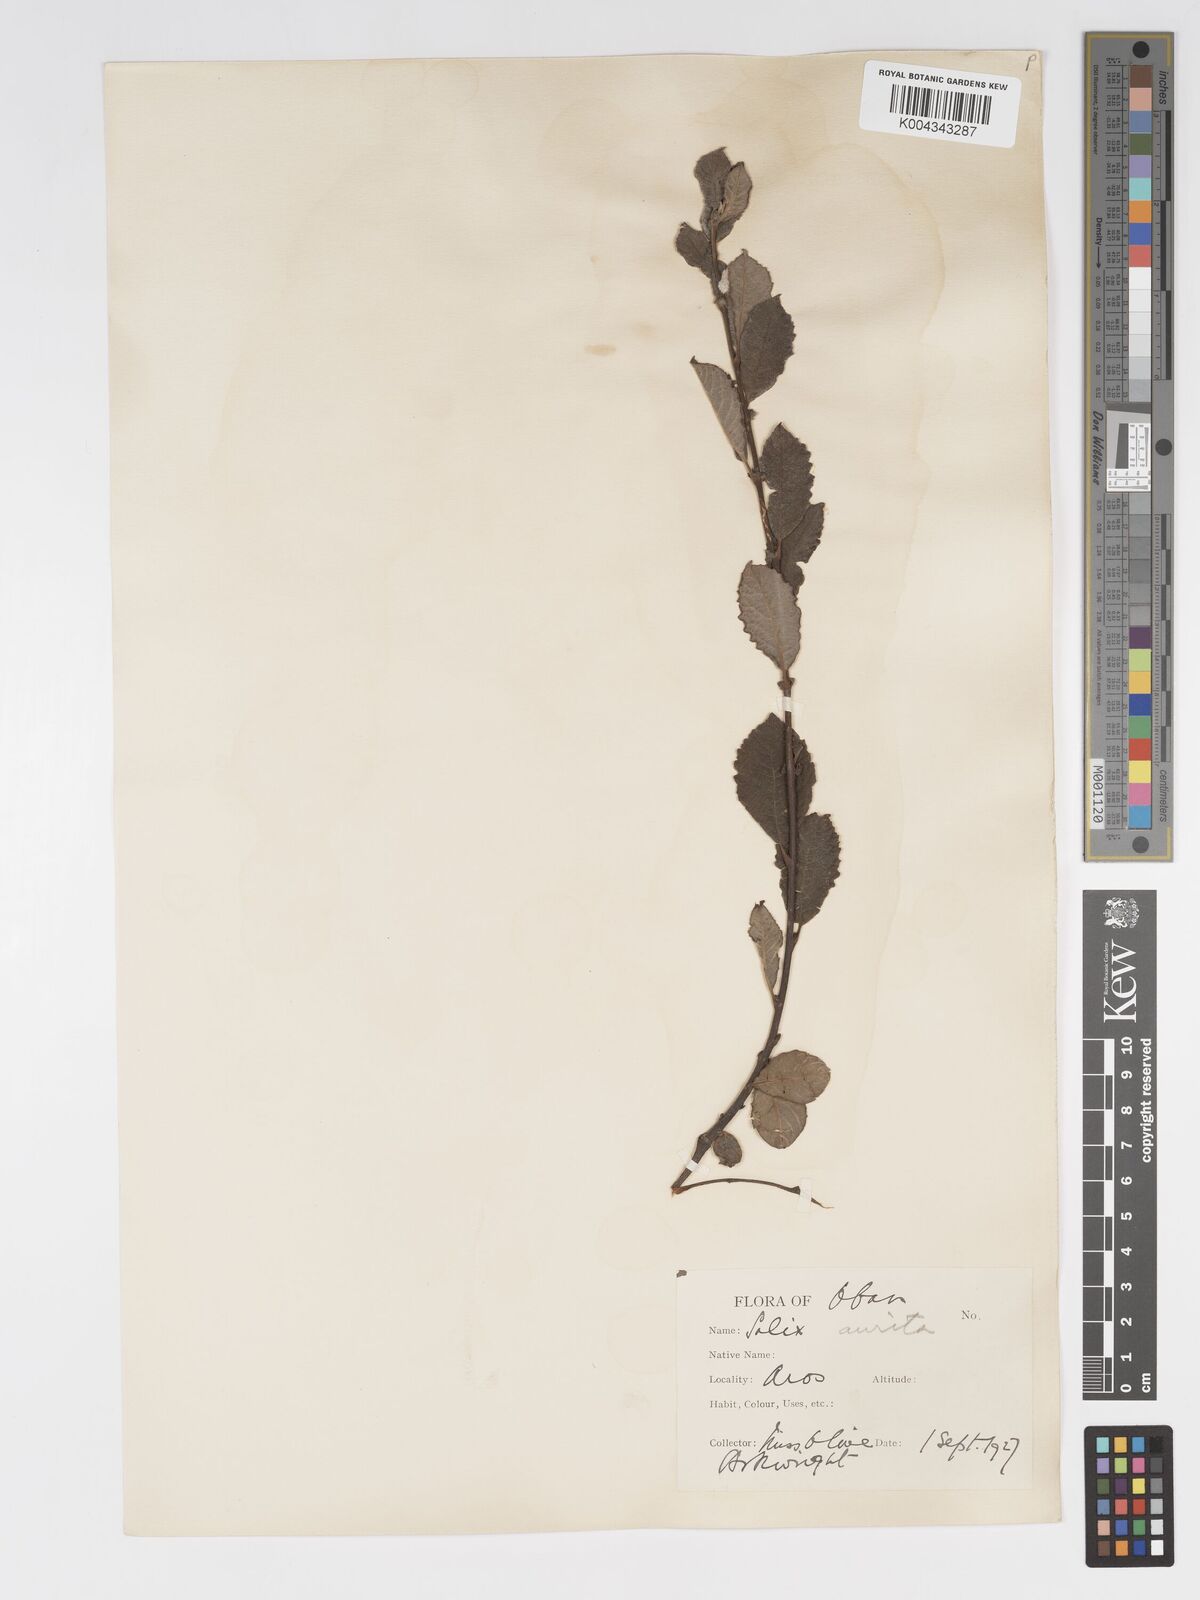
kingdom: Plantae
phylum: Tracheophyta
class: Magnoliopsida
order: Malpighiales
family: Salicaceae
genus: Salix
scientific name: Salix aurita
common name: Eared willow
